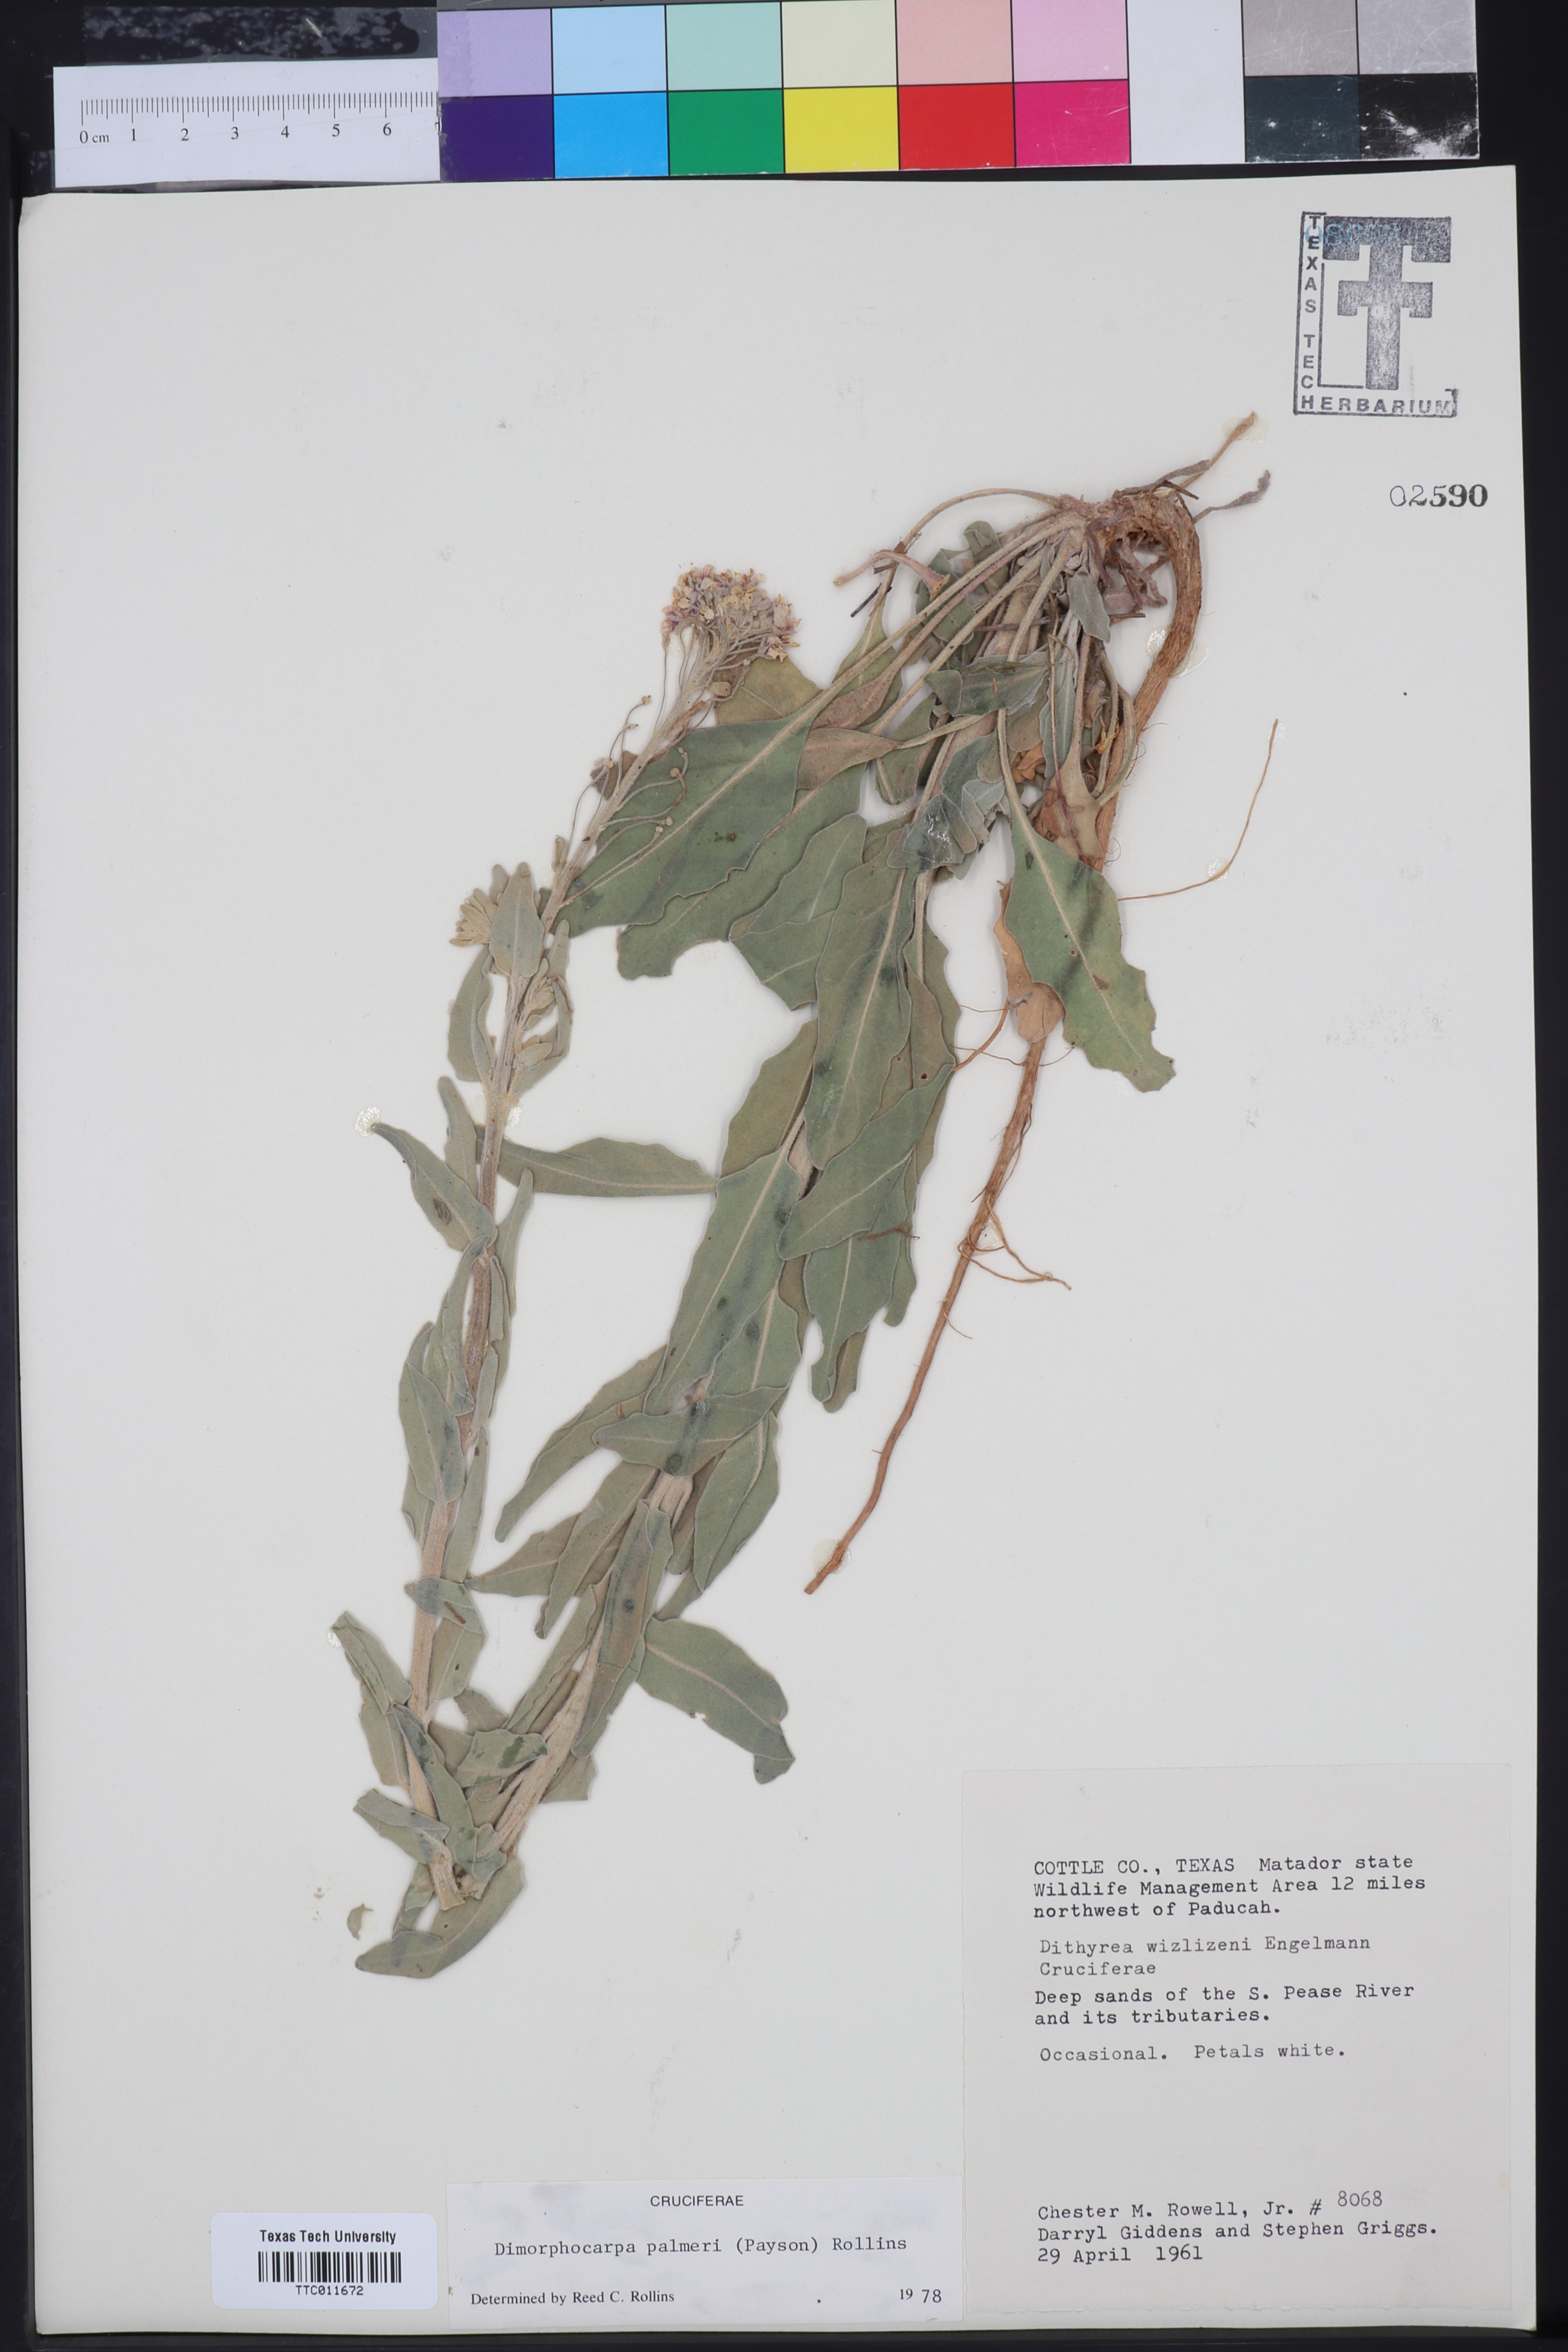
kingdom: Plantae
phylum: Tracheophyta
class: Magnoliopsida
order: Brassicales
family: Brassicaceae
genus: Dimorphocarpa
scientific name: Dimorphocarpa candicans
